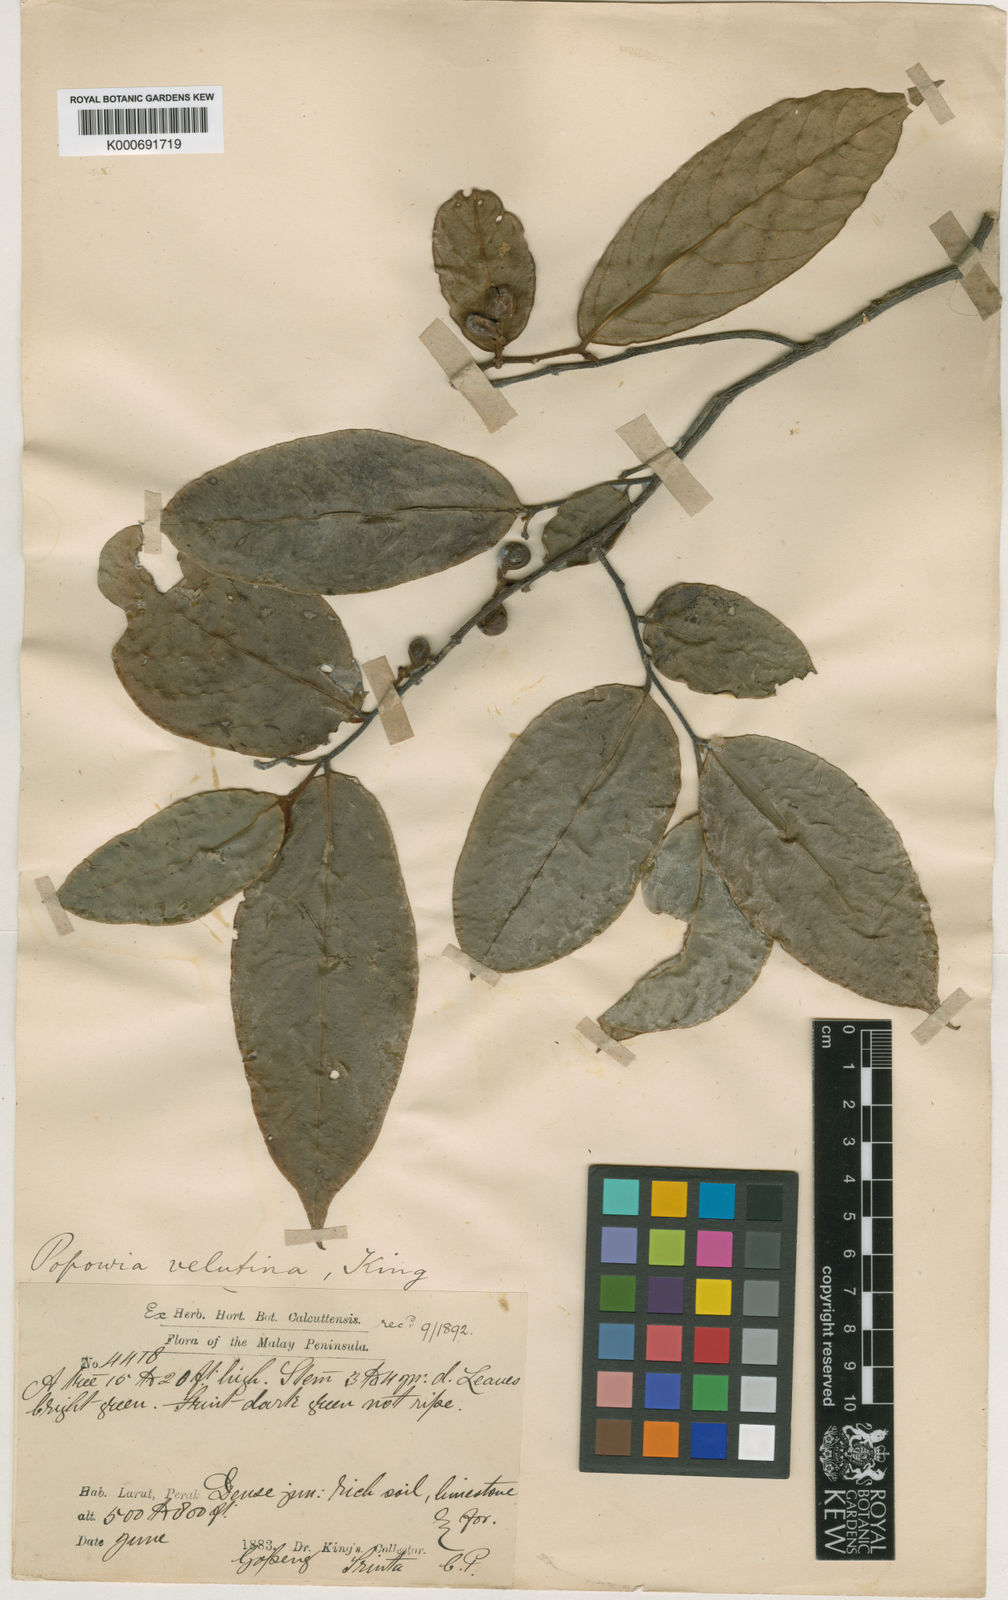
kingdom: Plantae
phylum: Tracheophyta
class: Magnoliopsida
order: Magnoliales
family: Annonaceae
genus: Popowia
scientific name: Popowia velutina
